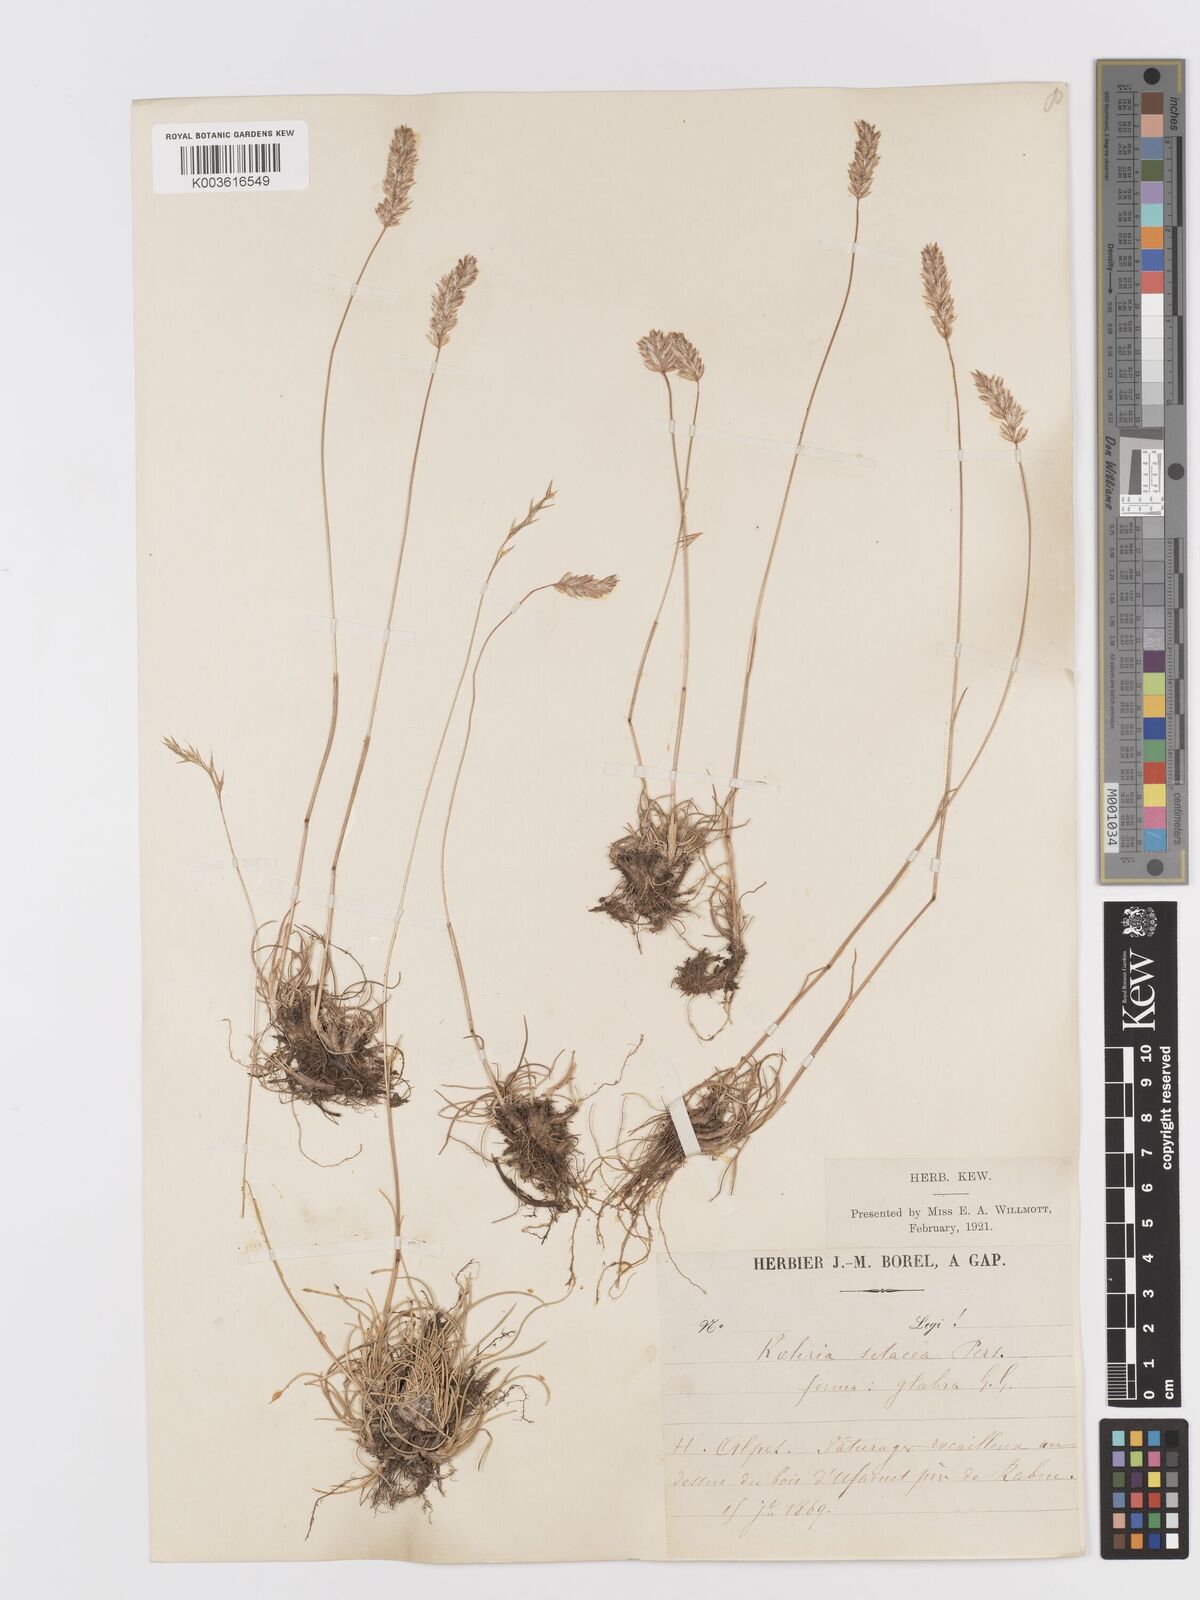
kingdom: Plantae
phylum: Tracheophyta
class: Liliopsida
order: Poales
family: Poaceae
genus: Koeleria
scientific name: Koeleria vallesiana
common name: Somerset hair-grass
